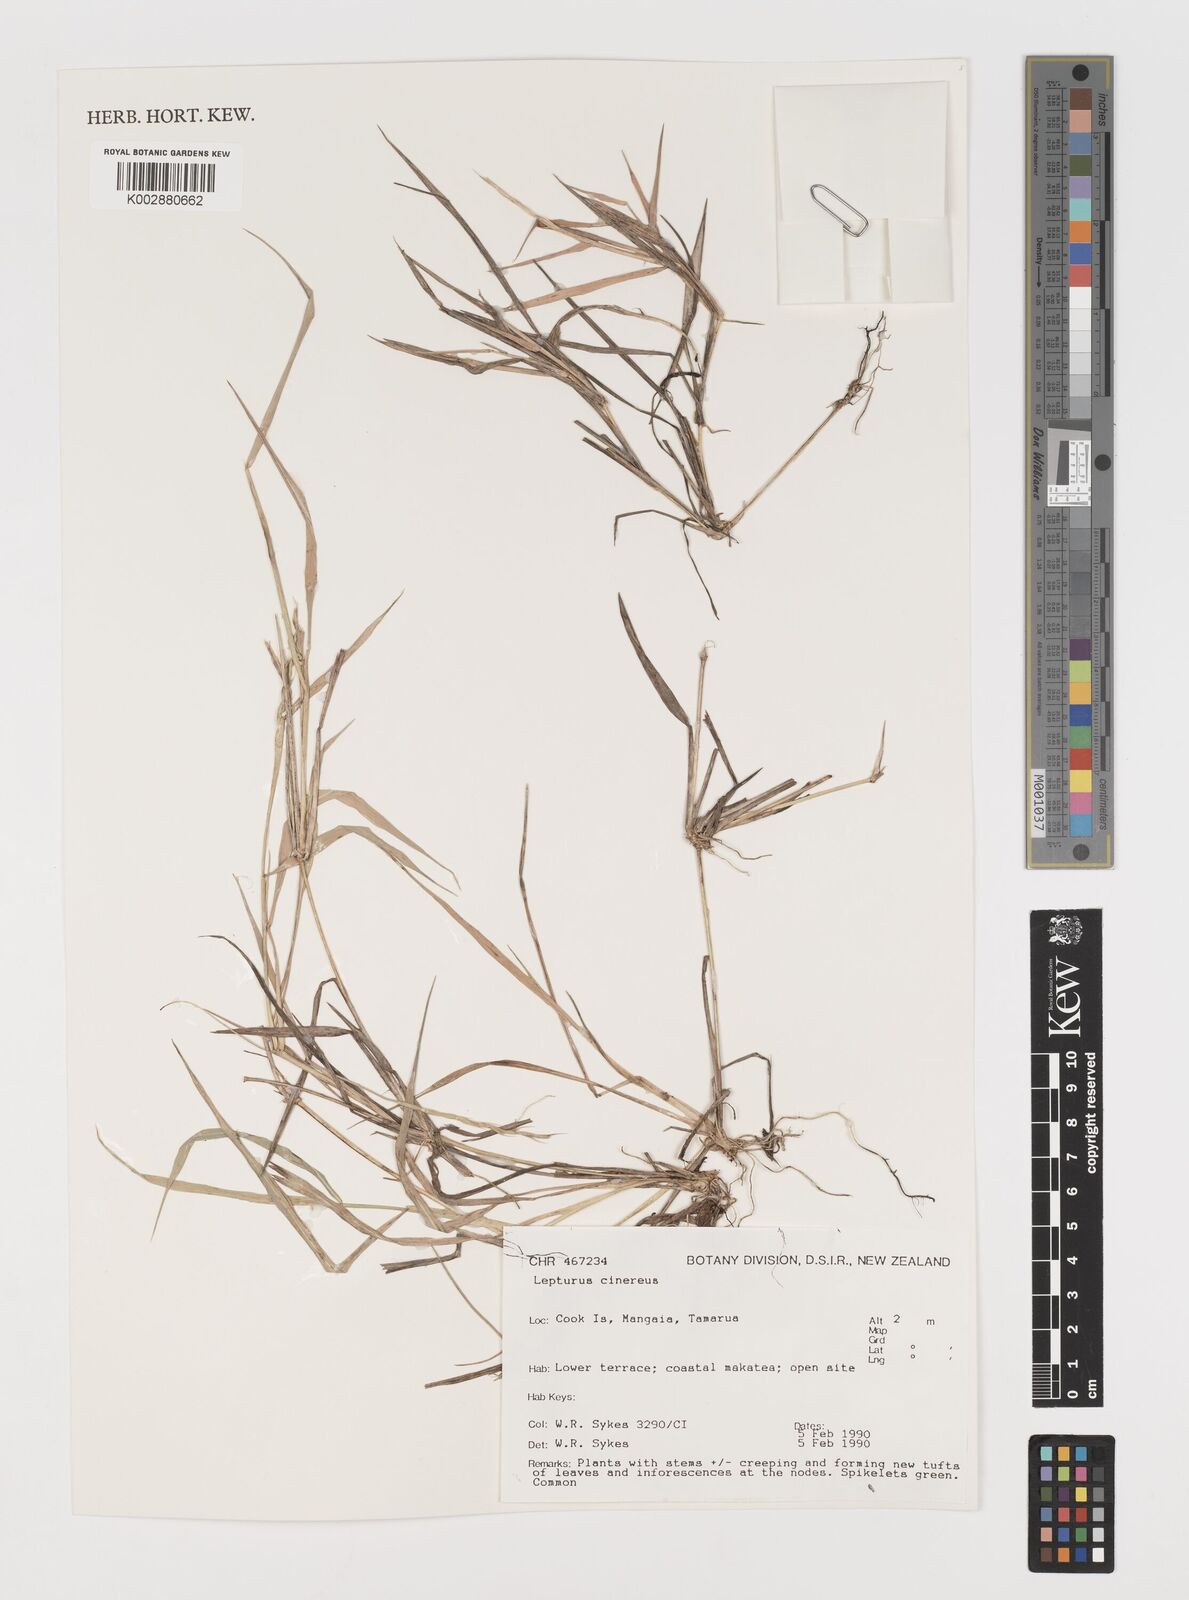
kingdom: Plantae
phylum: Tracheophyta
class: Liliopsida
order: Poales
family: Poaceae
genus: Lepturus
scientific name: Lepturus repens
